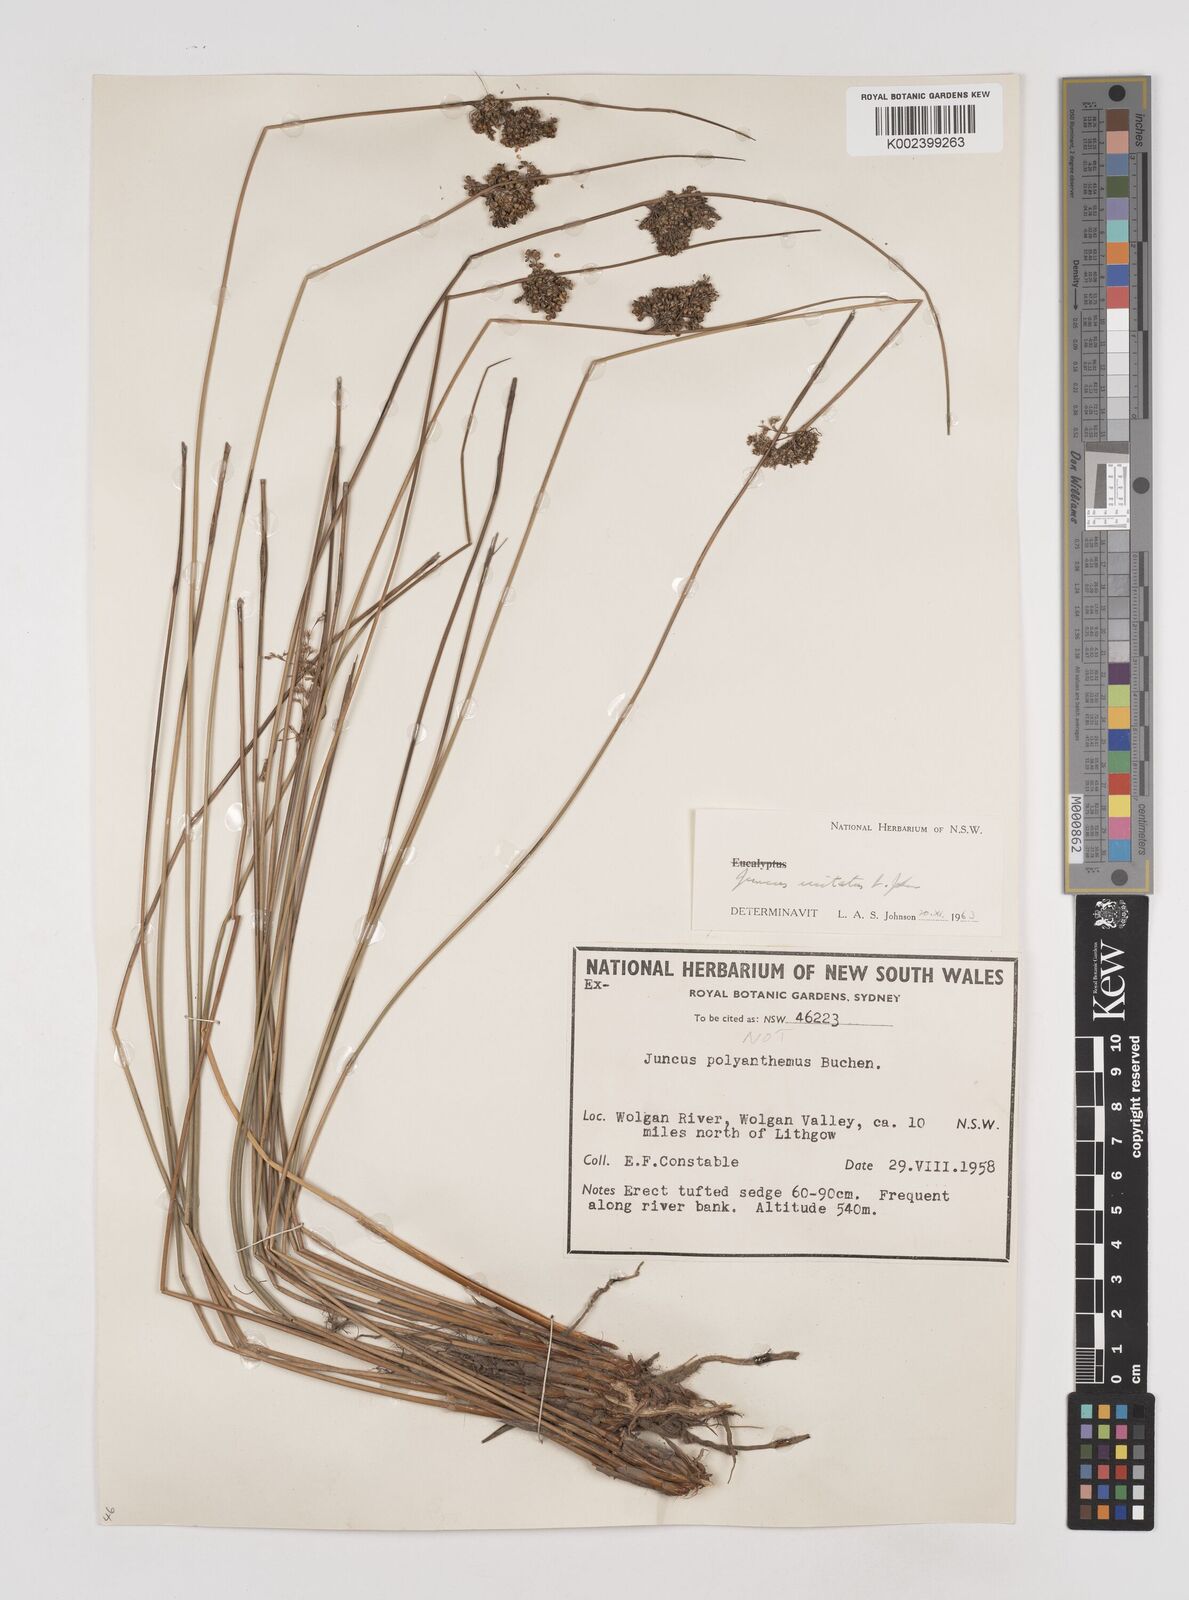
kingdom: Plantae
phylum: Tracheophyta
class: Liliopsida
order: Poales
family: Juncaceae
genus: Juncus
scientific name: Juncus usitatus
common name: Rush
